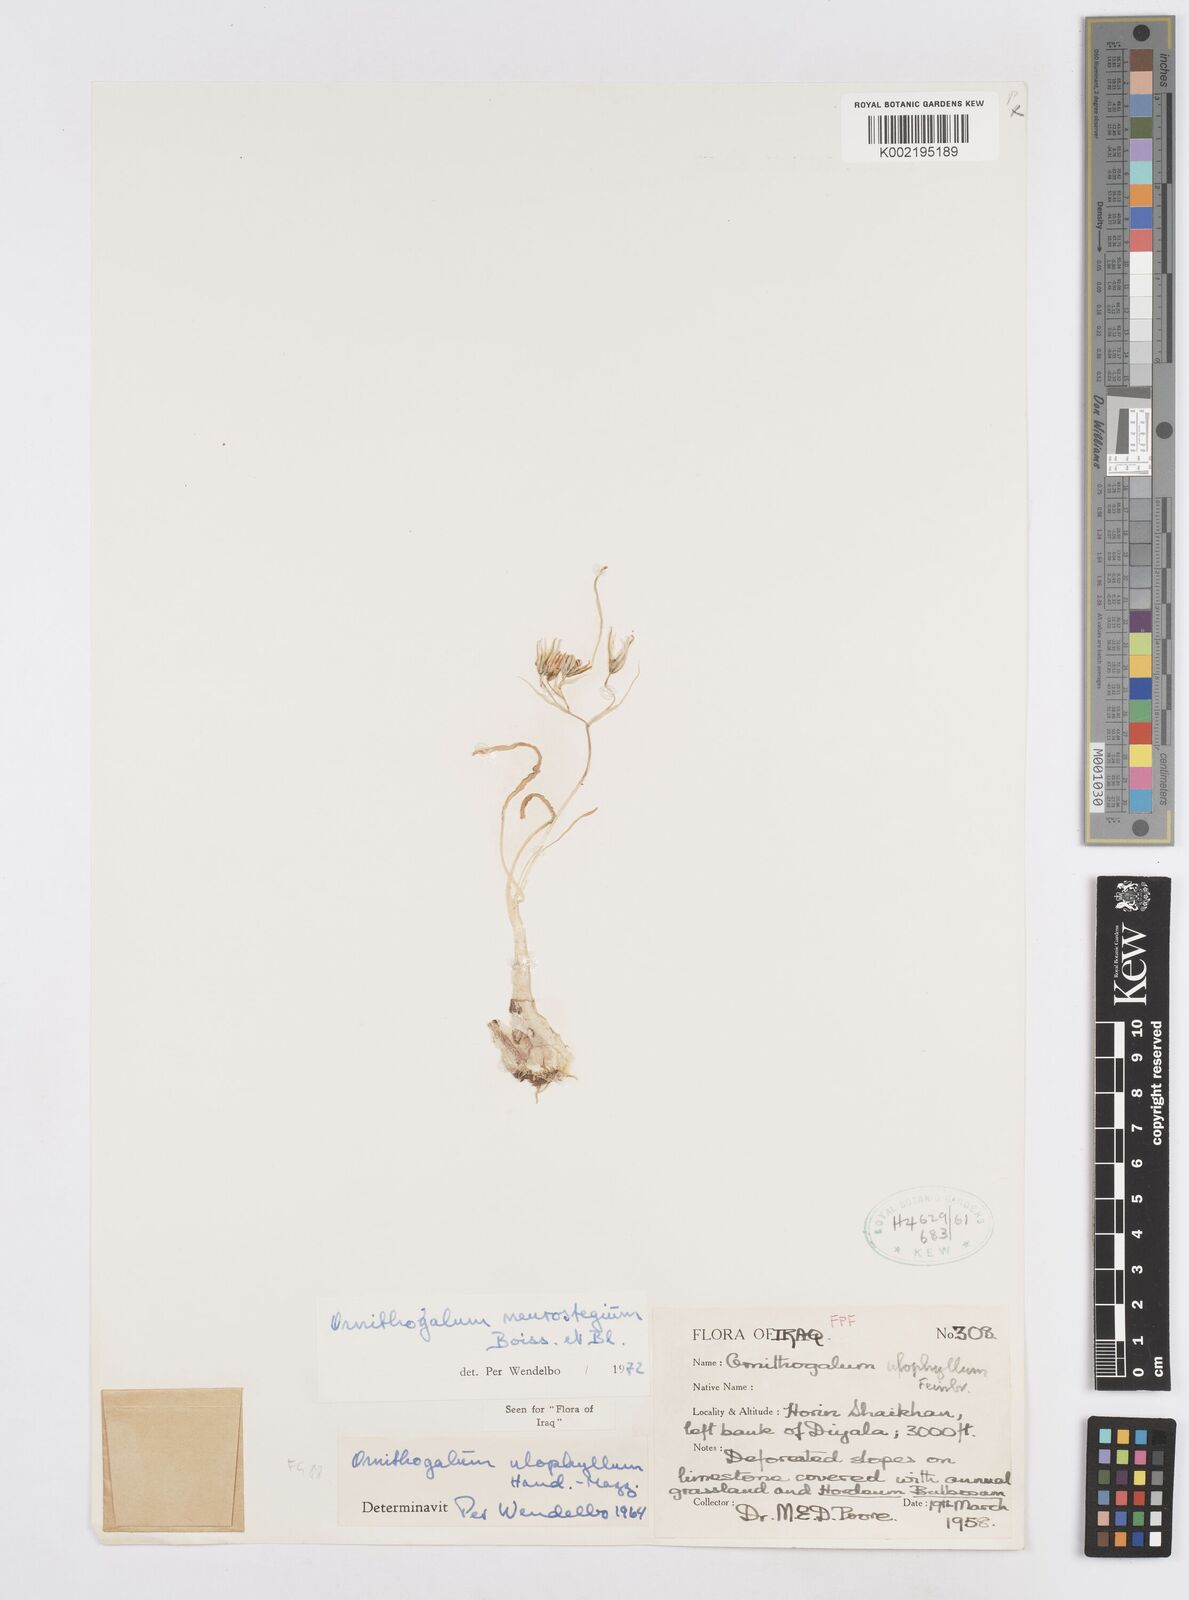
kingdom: Plantae
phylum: Tracheophyta
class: Liliopsida
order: Asparagales
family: Asparagaceae
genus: Ornithogalum
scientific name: Ornithogalum neurostegium
